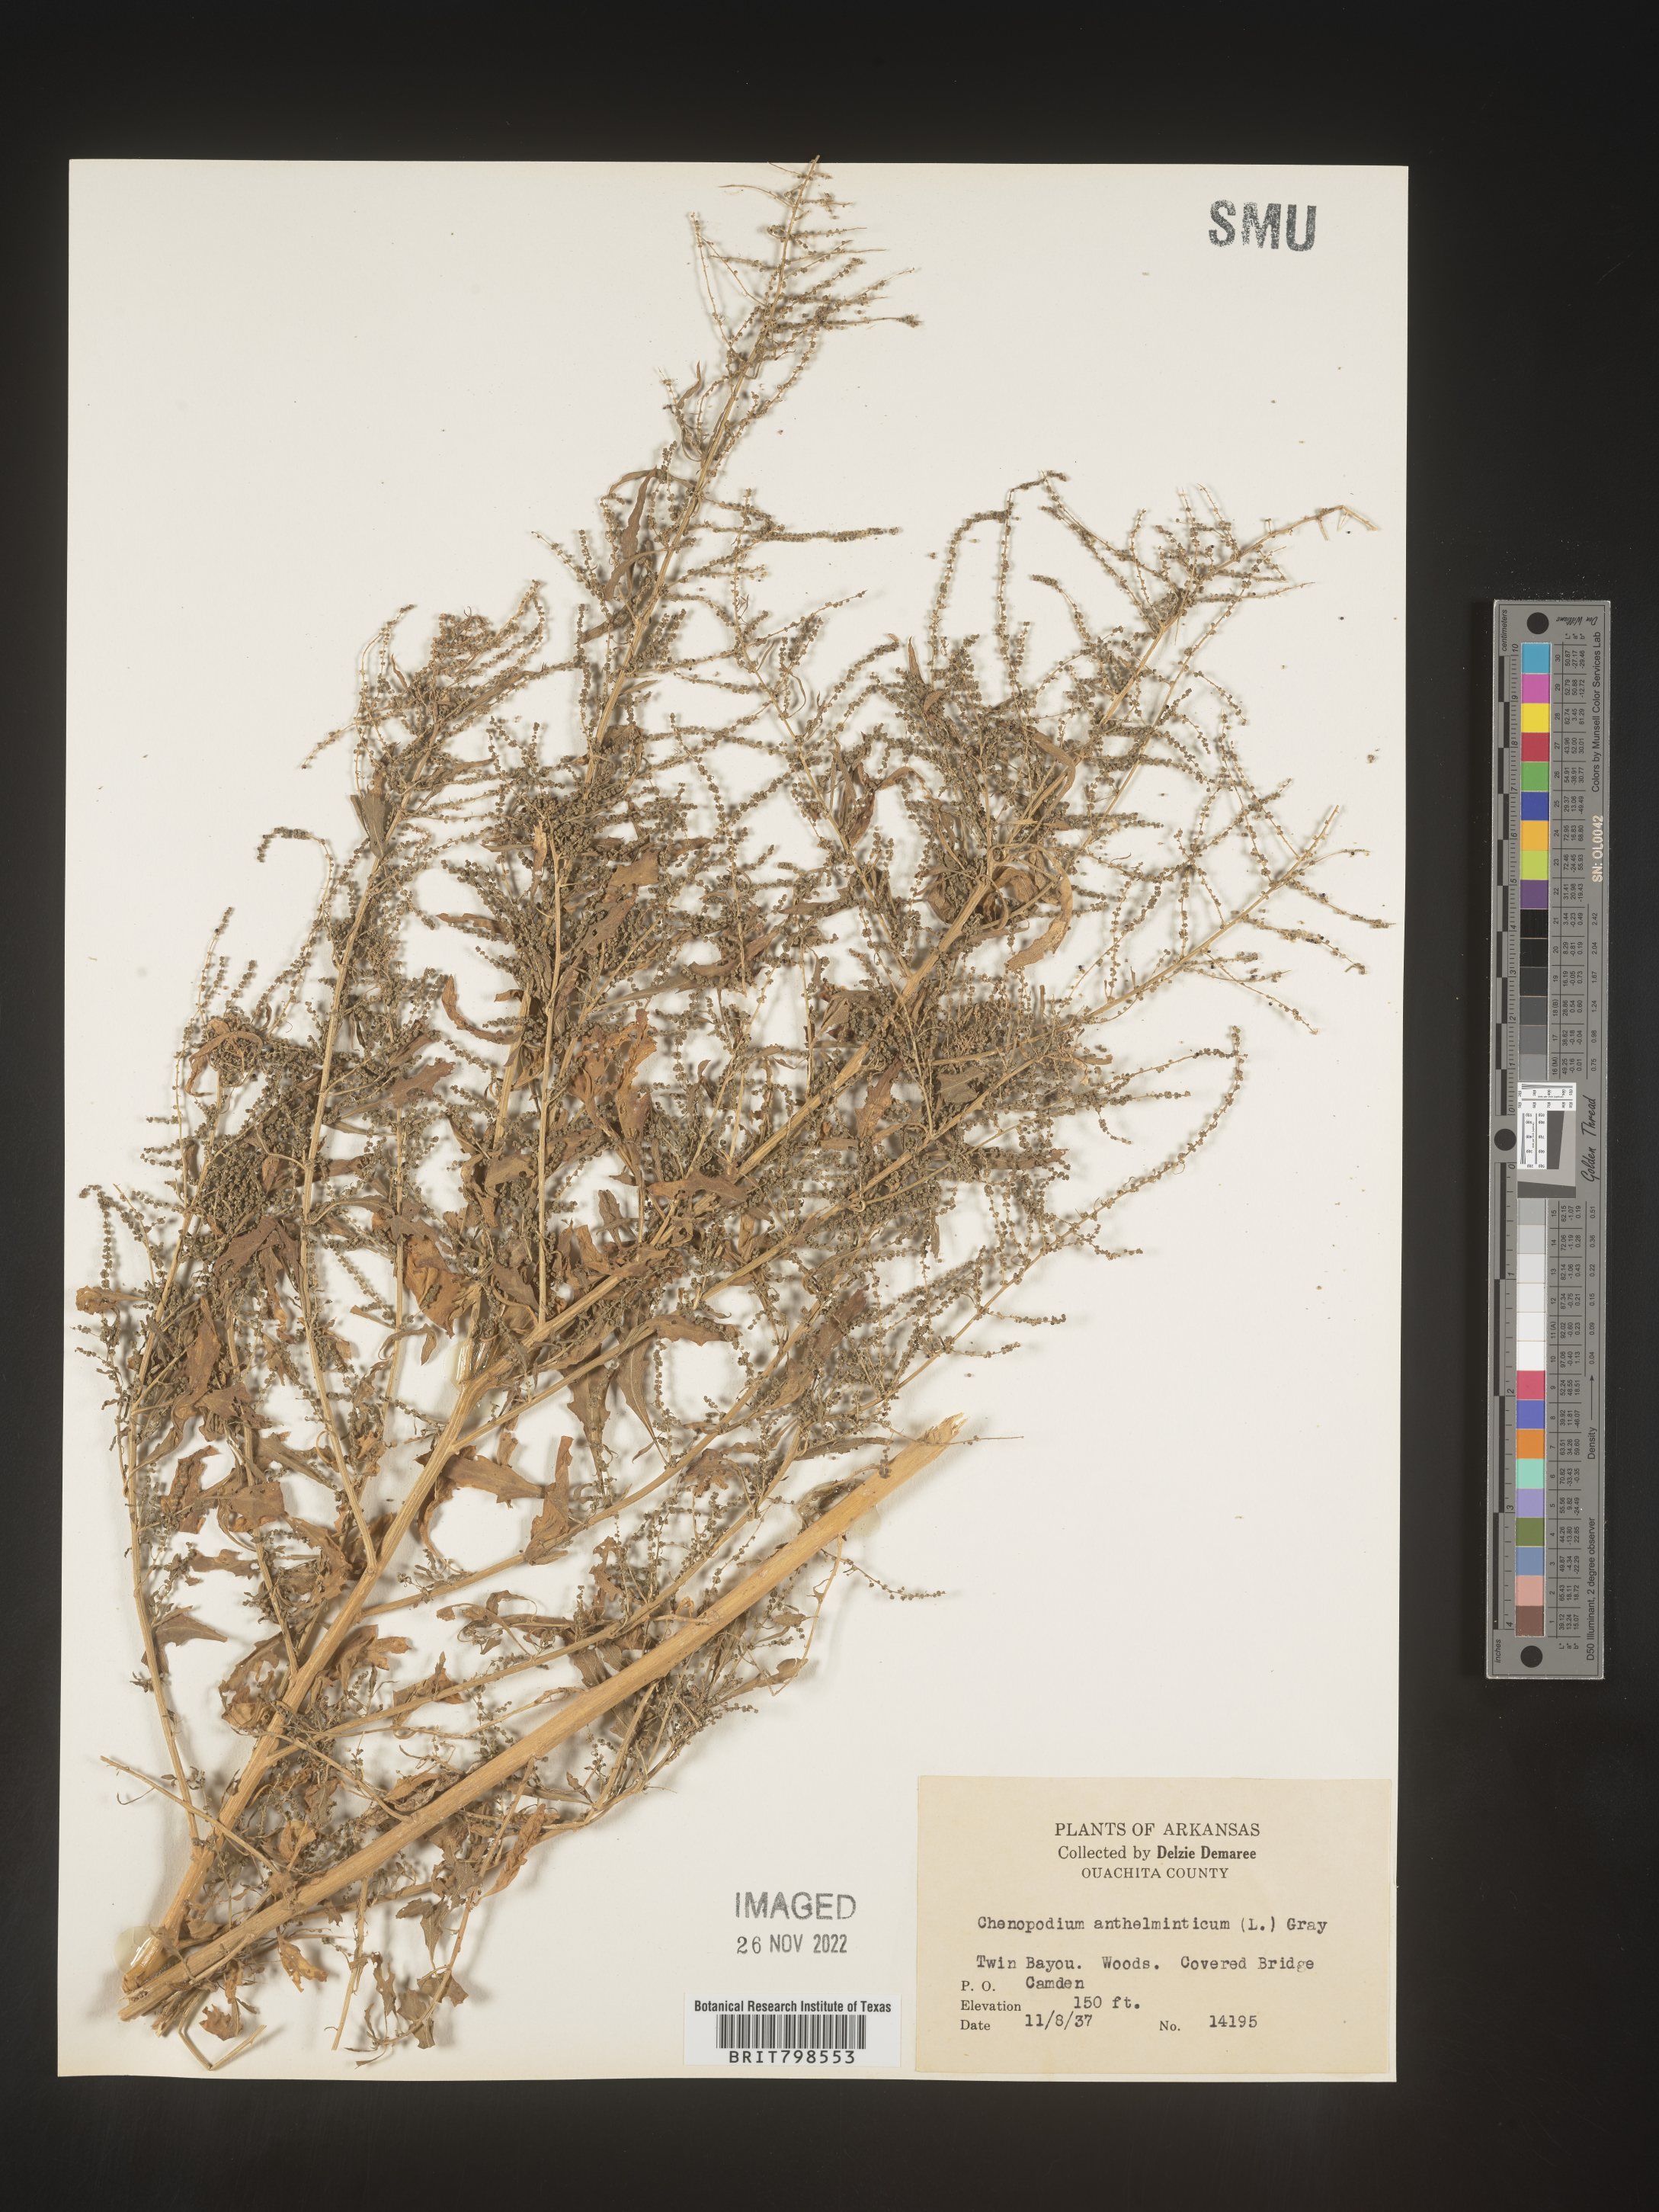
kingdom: Plantae
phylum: Tracheophyta
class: Magnoliopsida
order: Caryophyllales
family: Amaranthaceae
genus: Dysphania
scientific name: Dysphania ambrosioides
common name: Wormseed
